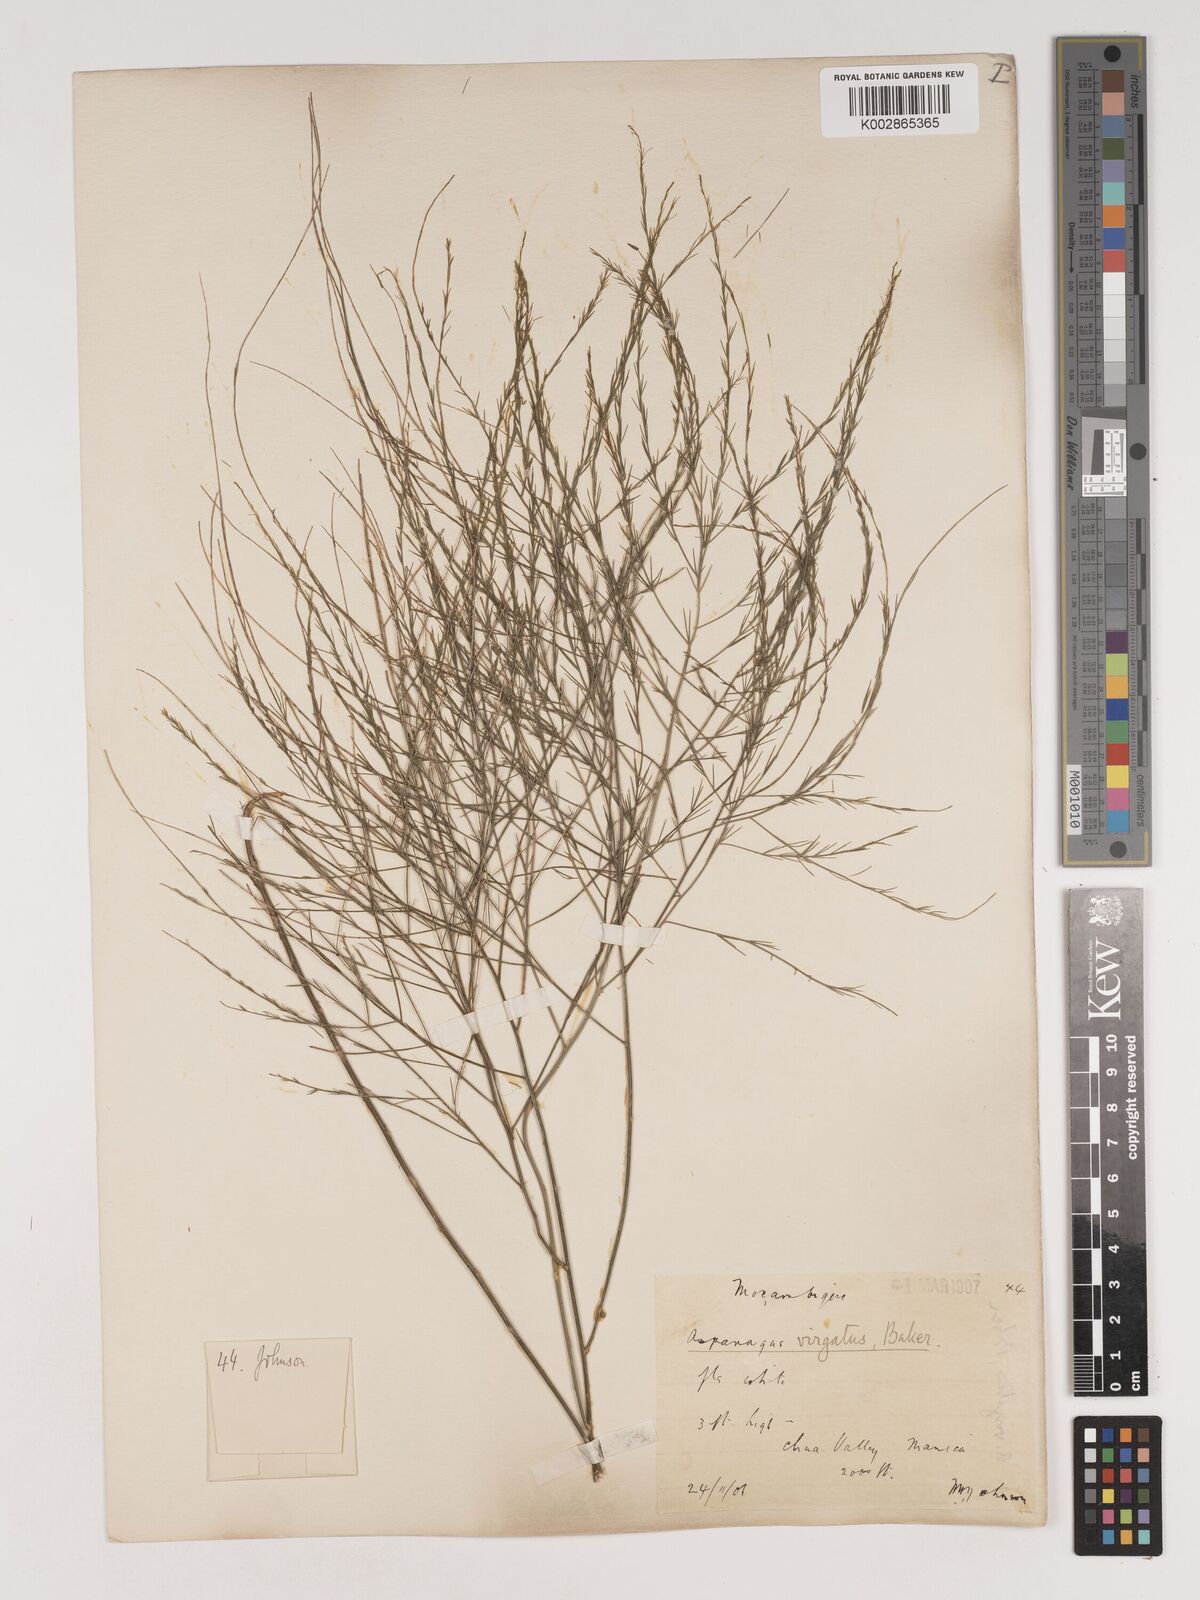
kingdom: Plantae
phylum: Tracheophyta
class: Liliopsida
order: Asparagales
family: Asparagaceae
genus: Asparagus
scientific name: Asparagus virgatus
